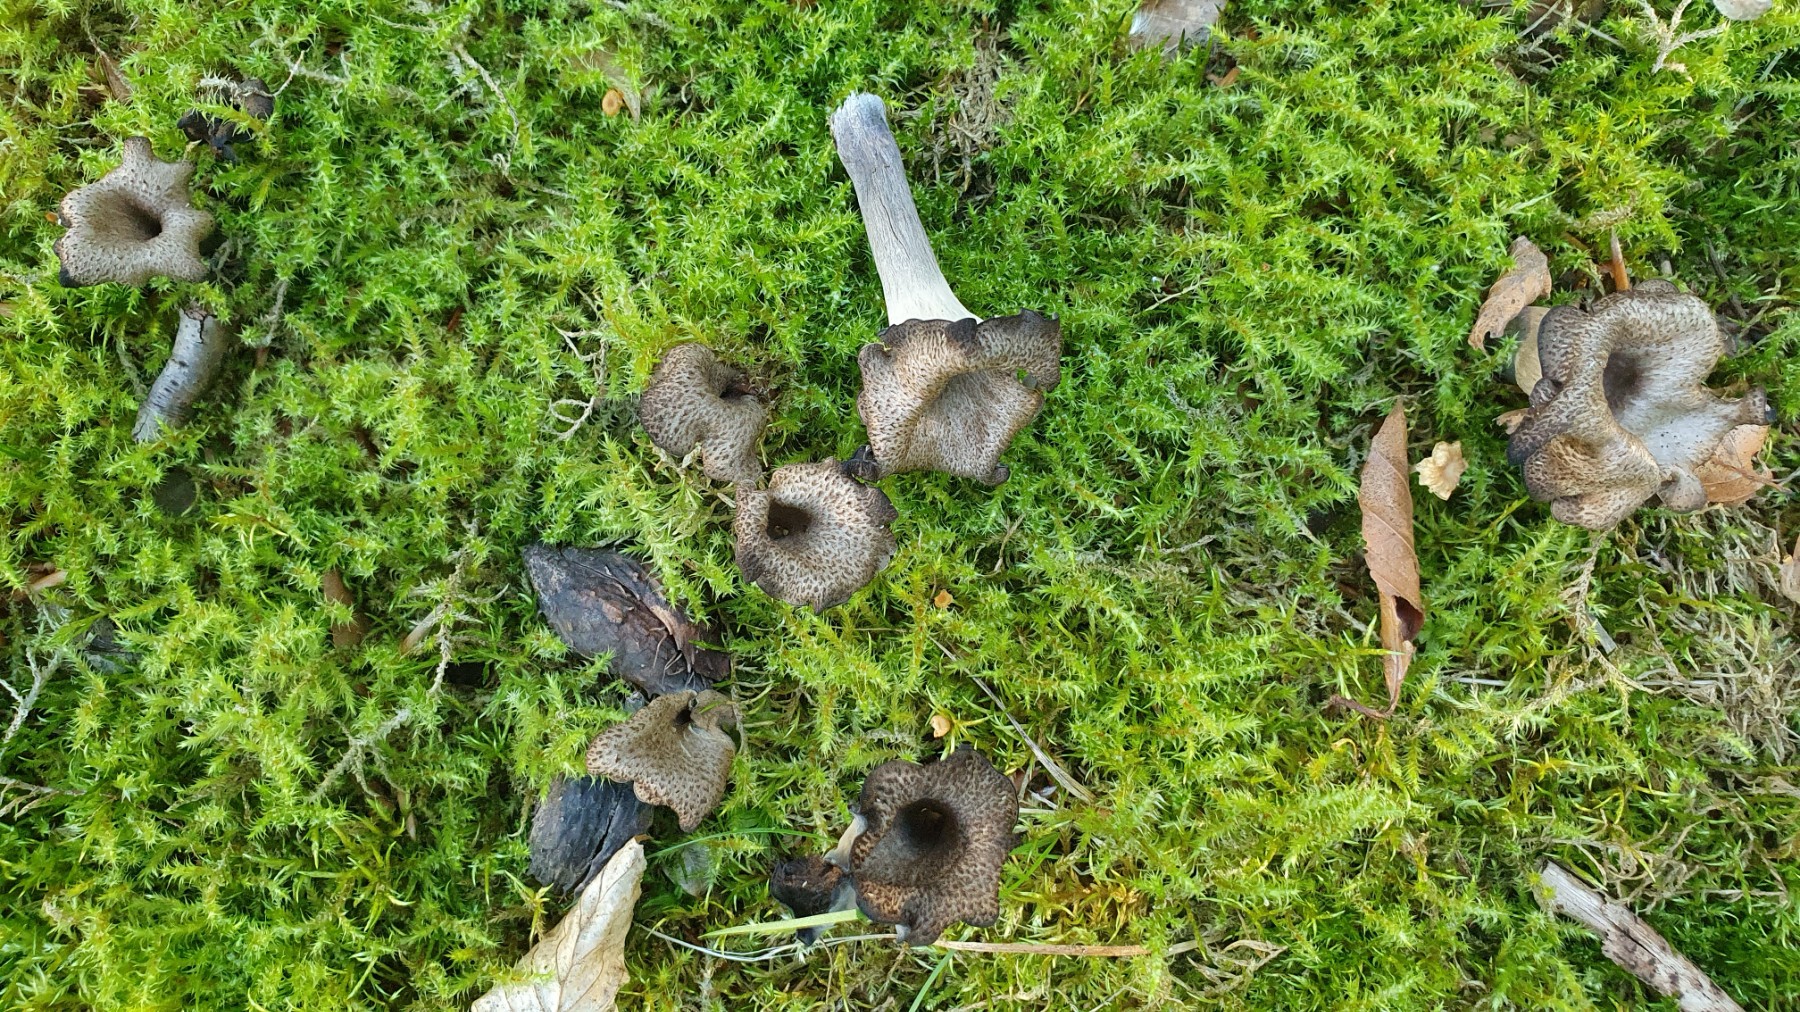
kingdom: Fungi
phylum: Basidiomycota
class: Agaricomycetes
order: Cantharellales
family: Hydnaceae
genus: Craterellus
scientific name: Craterellus cornucopioides
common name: trompetsvamp
